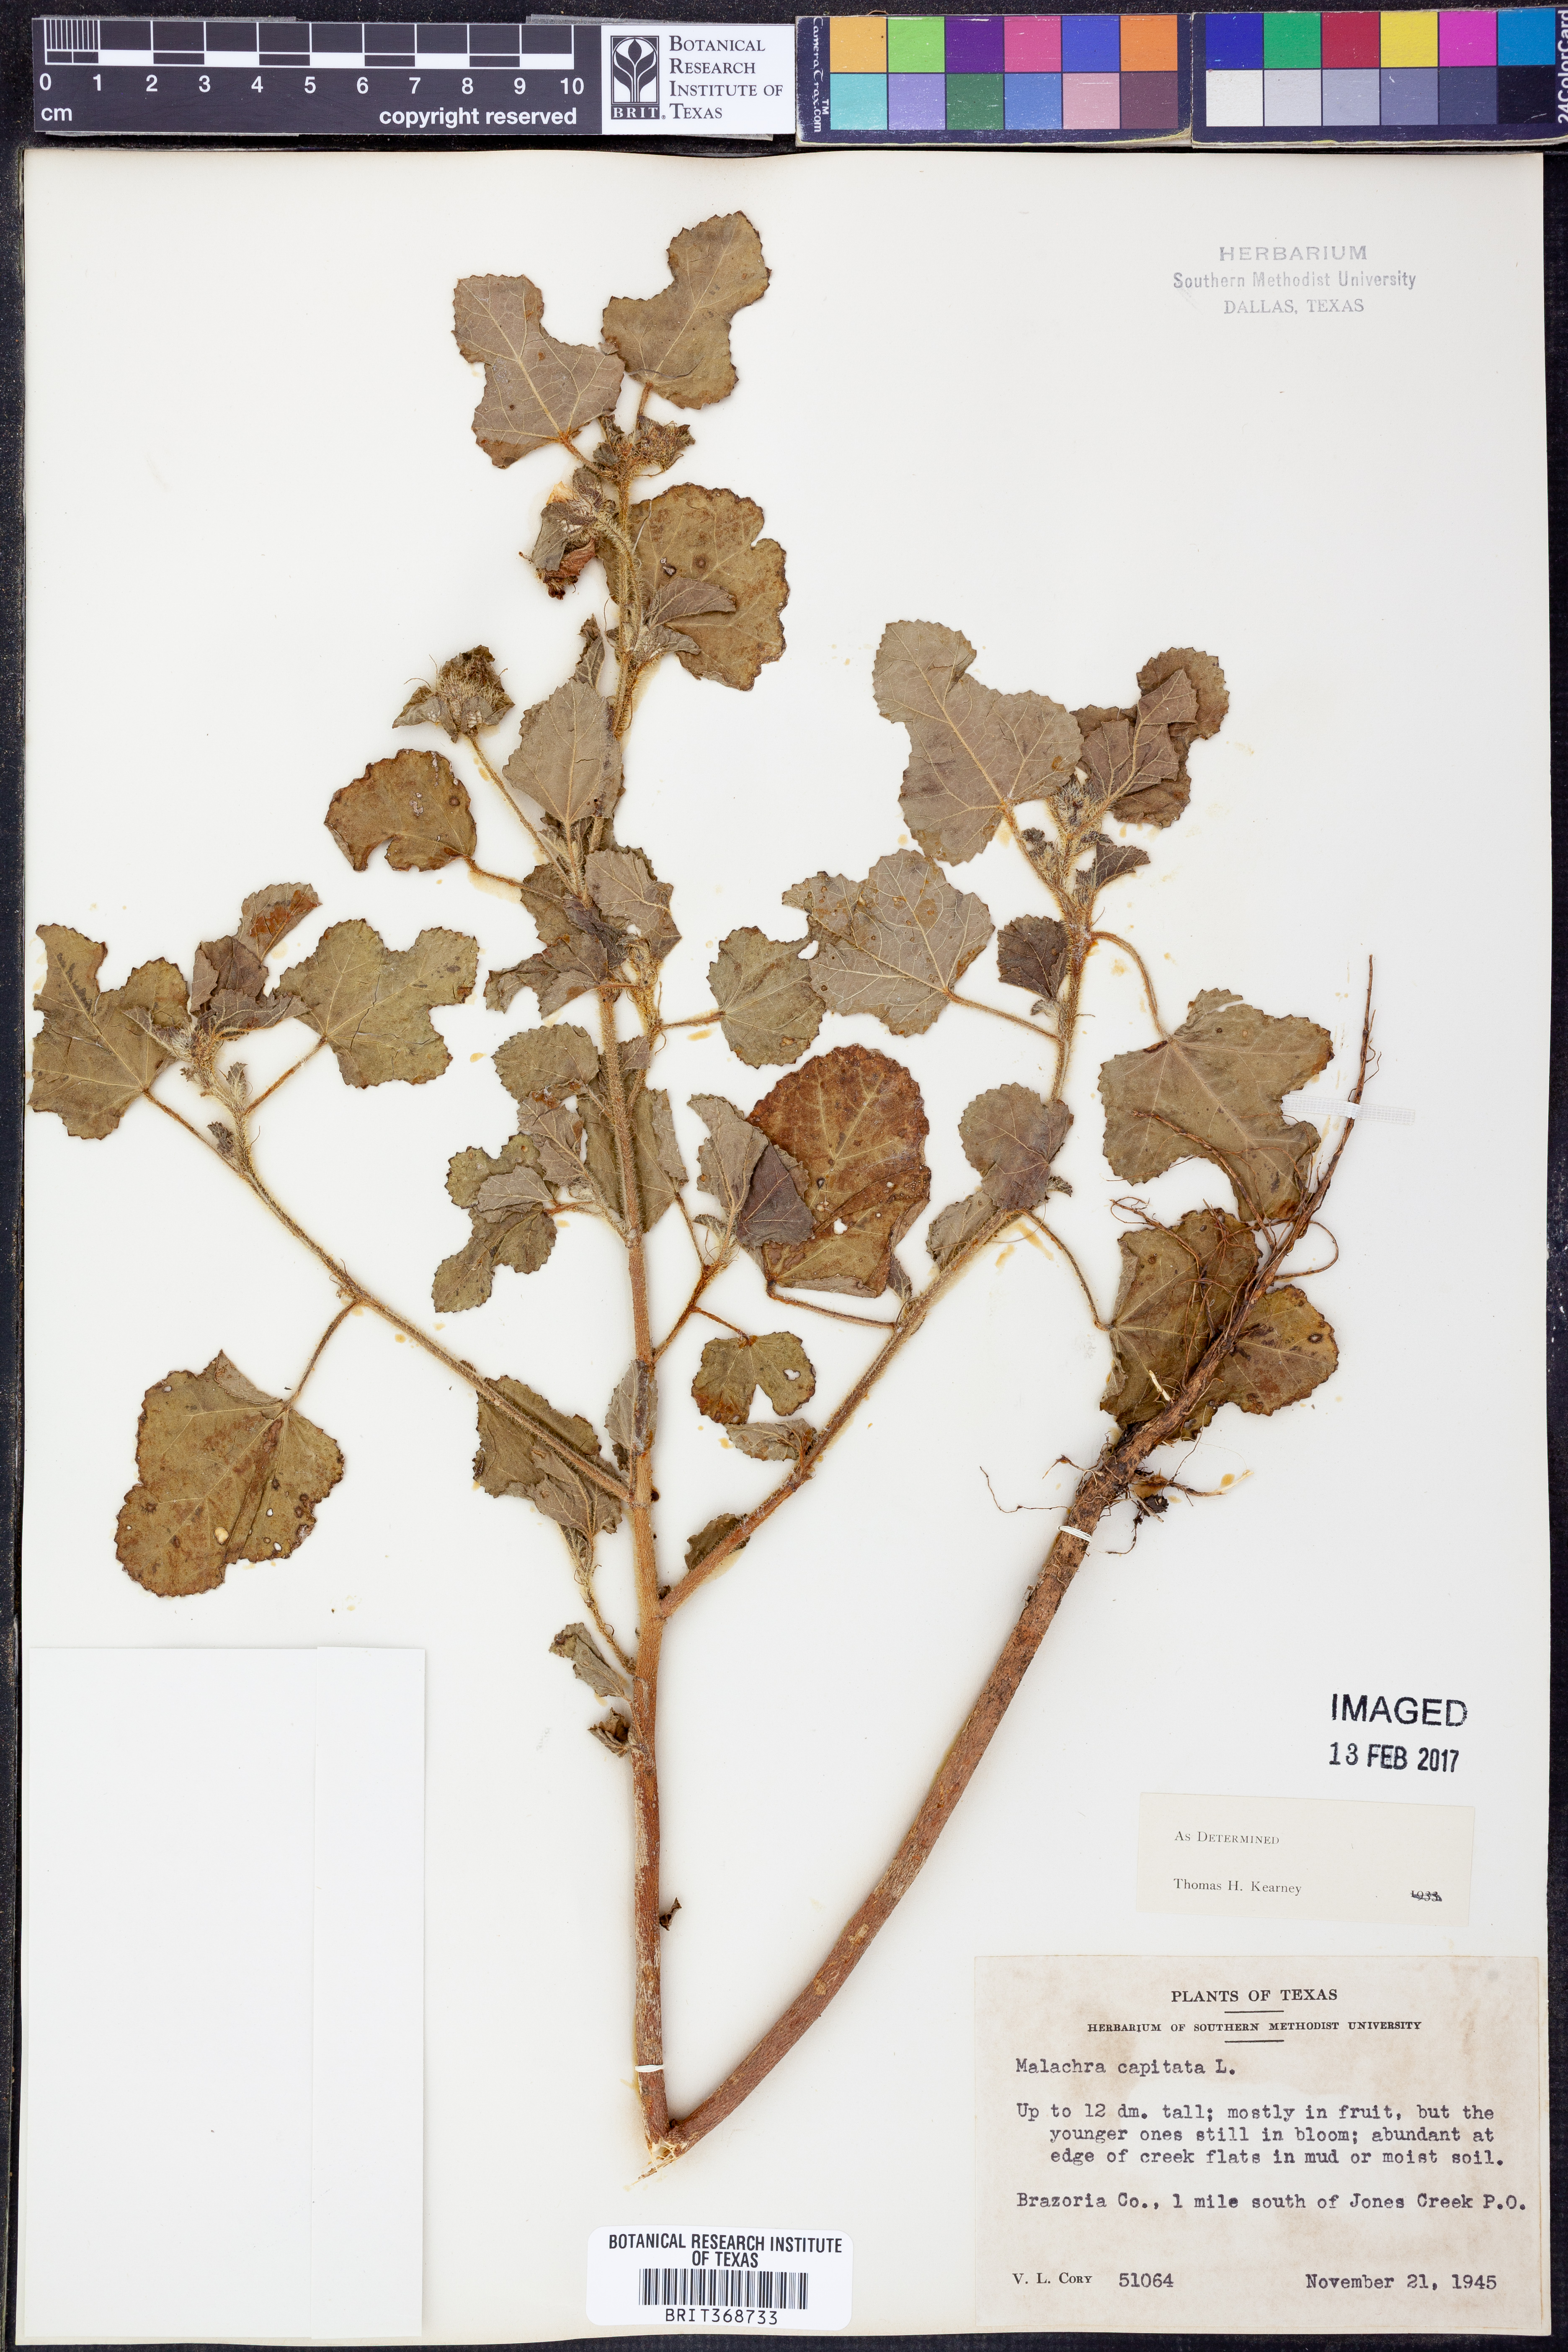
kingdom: Plantae
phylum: Tracheophyta
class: Magnoliopsida
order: Malvales
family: Malvaceae
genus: Malachra
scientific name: Malachra capitata
